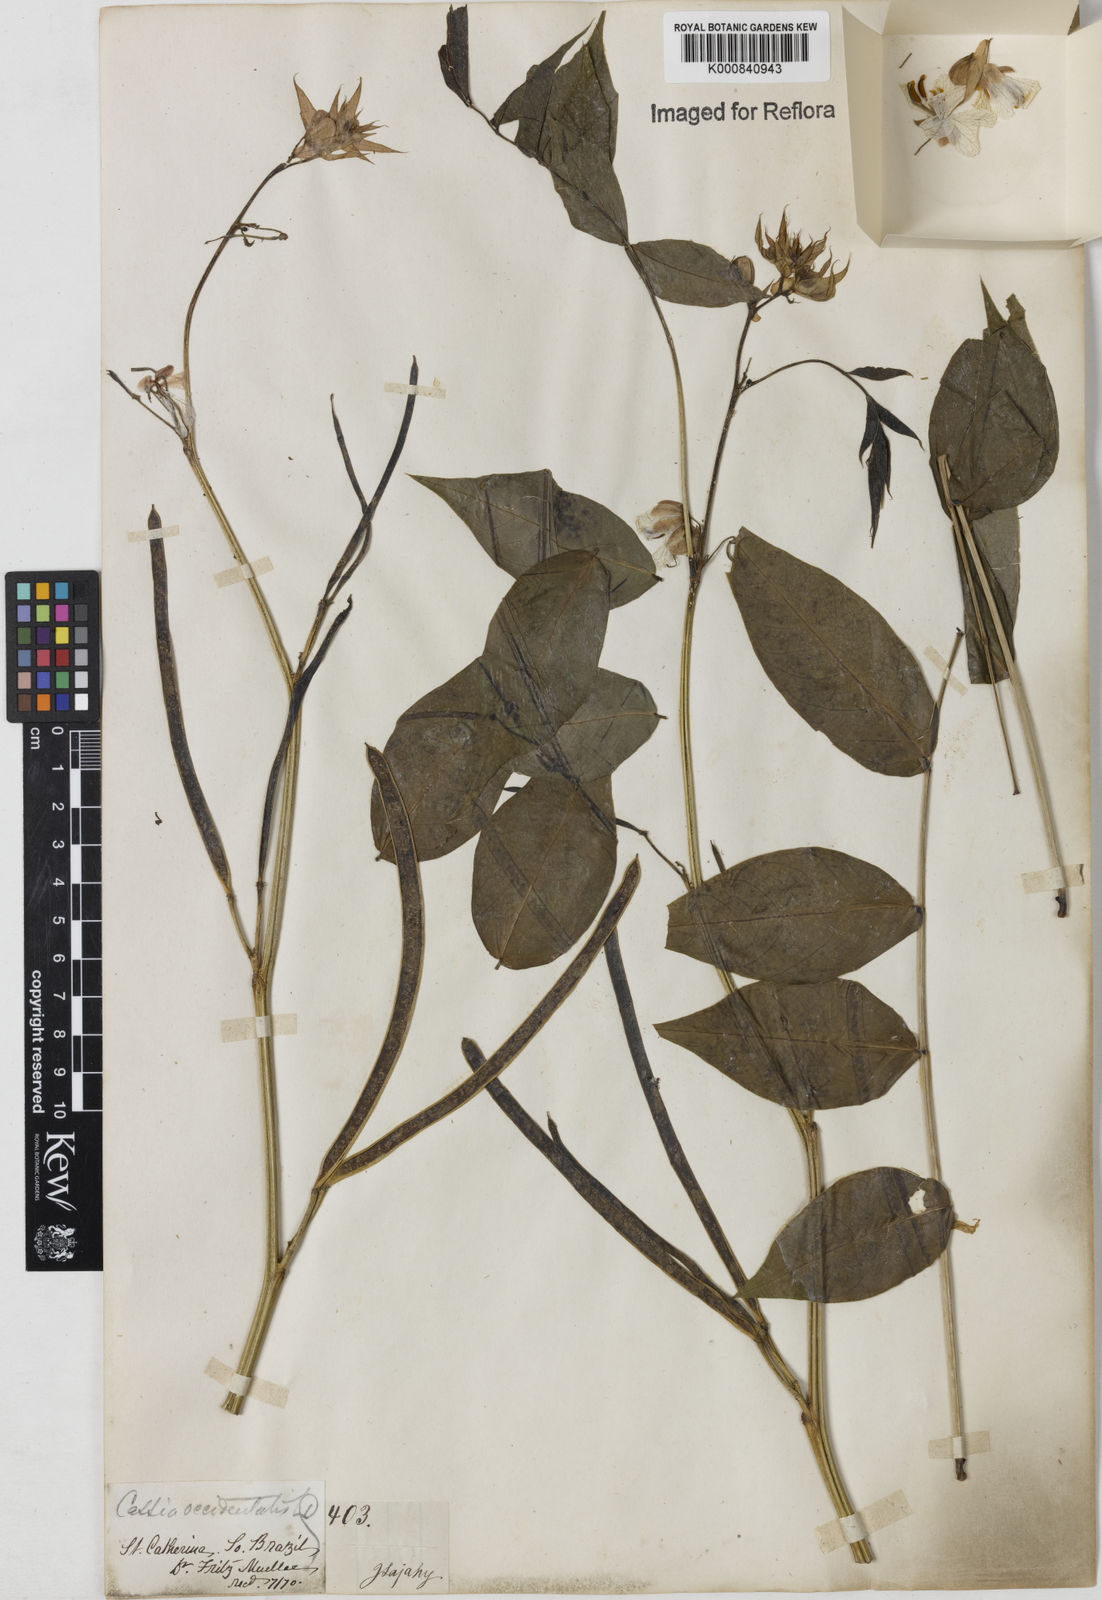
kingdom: Plantae
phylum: Tracheophyta
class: Magnoliopsida
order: Fabales
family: Fabaceae
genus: Senna
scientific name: Senna occidentalis
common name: Septicweed
